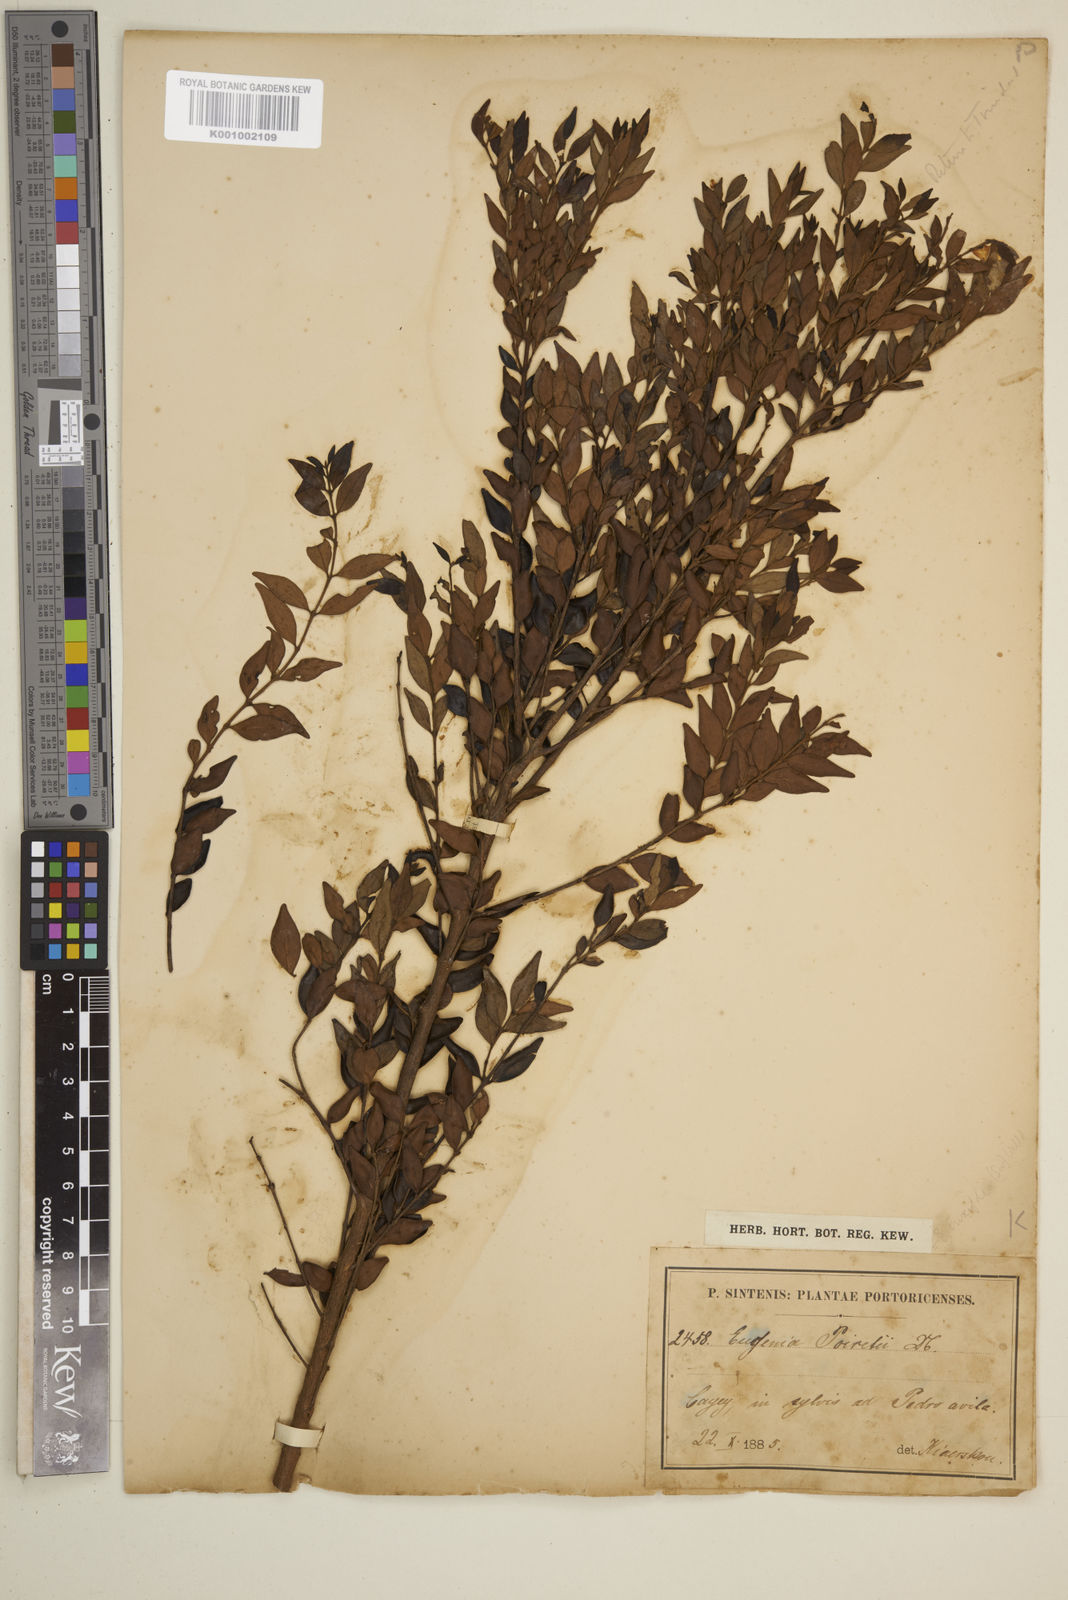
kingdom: Plantae
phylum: Tracheophyta
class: Magnoliopsida
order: Myrtales
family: Myrtaceae
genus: Eugenia
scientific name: Eugenia monticola
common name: Birds berry
